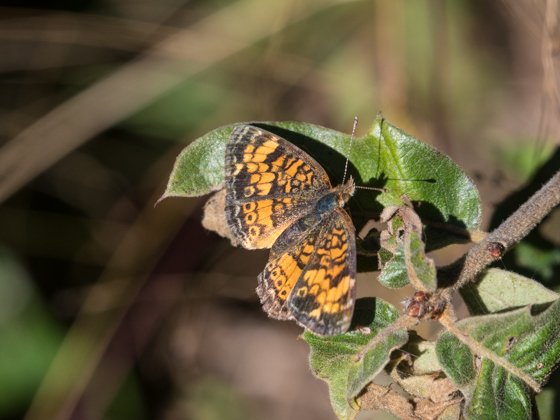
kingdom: Animalia
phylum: Arthropoda
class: Insecta
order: Lepidoptera
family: Nymphalidae
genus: Phyciodes
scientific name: Phyciodes tharos
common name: Pearl Crescent
